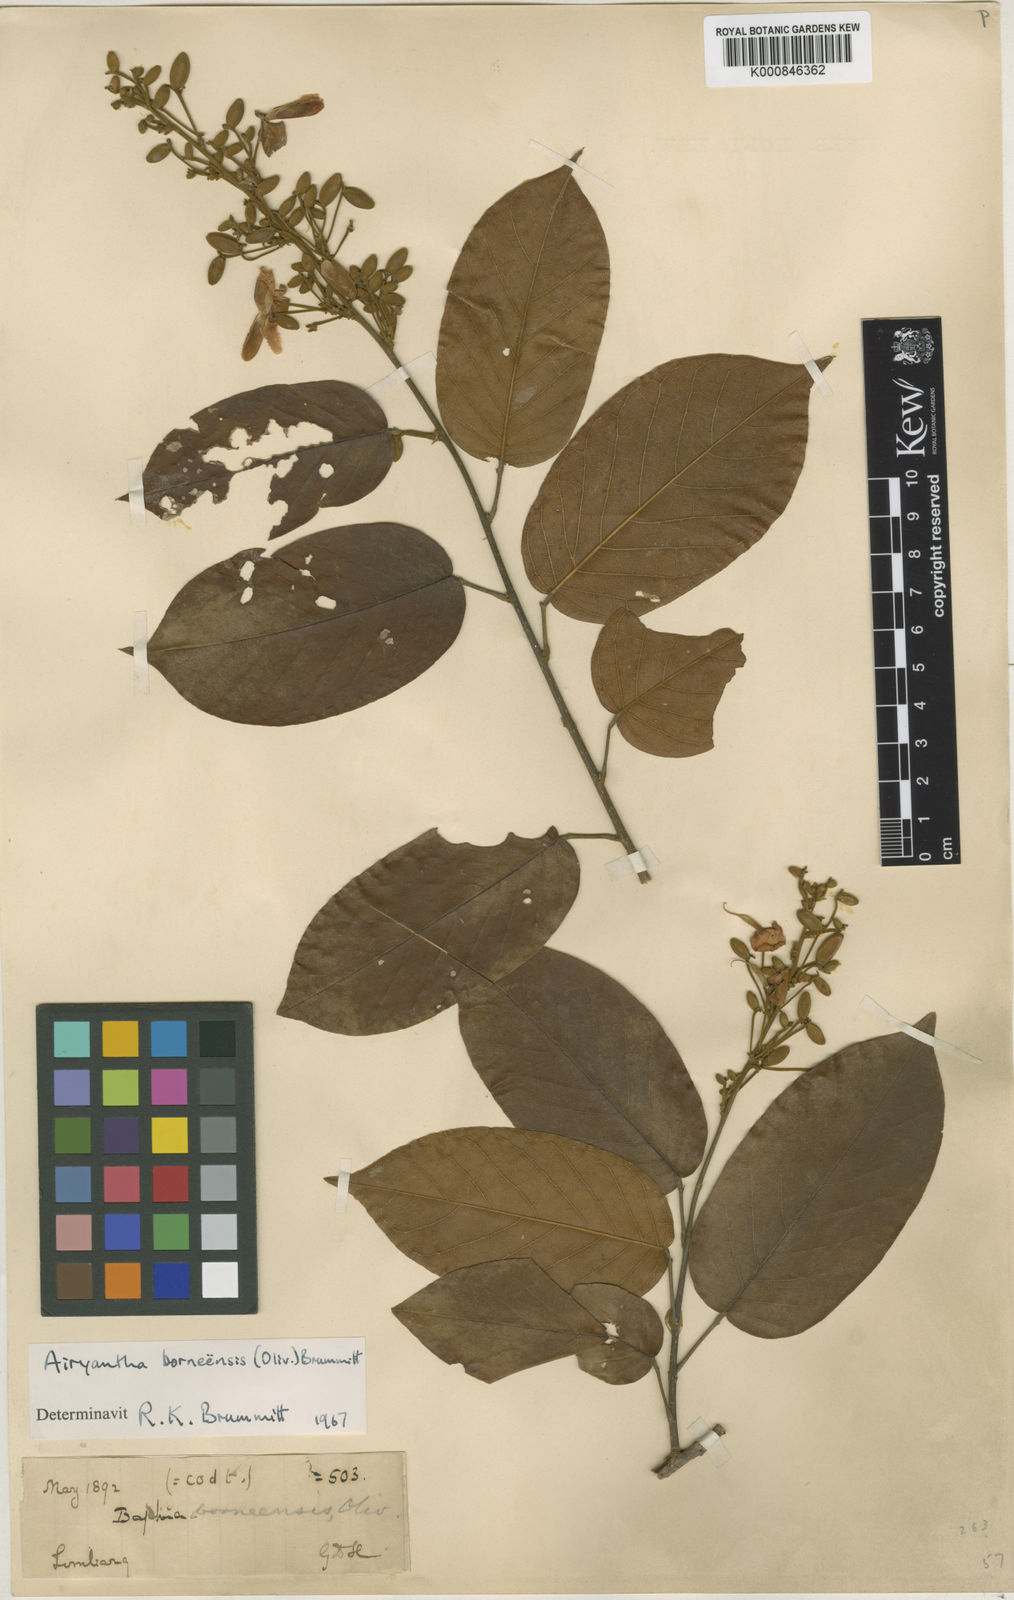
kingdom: Plantae
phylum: Tracheophyta
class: Magnoliopsida
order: Fabales
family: Fabaceae
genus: Airyantha
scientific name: Airyantha borneensis
